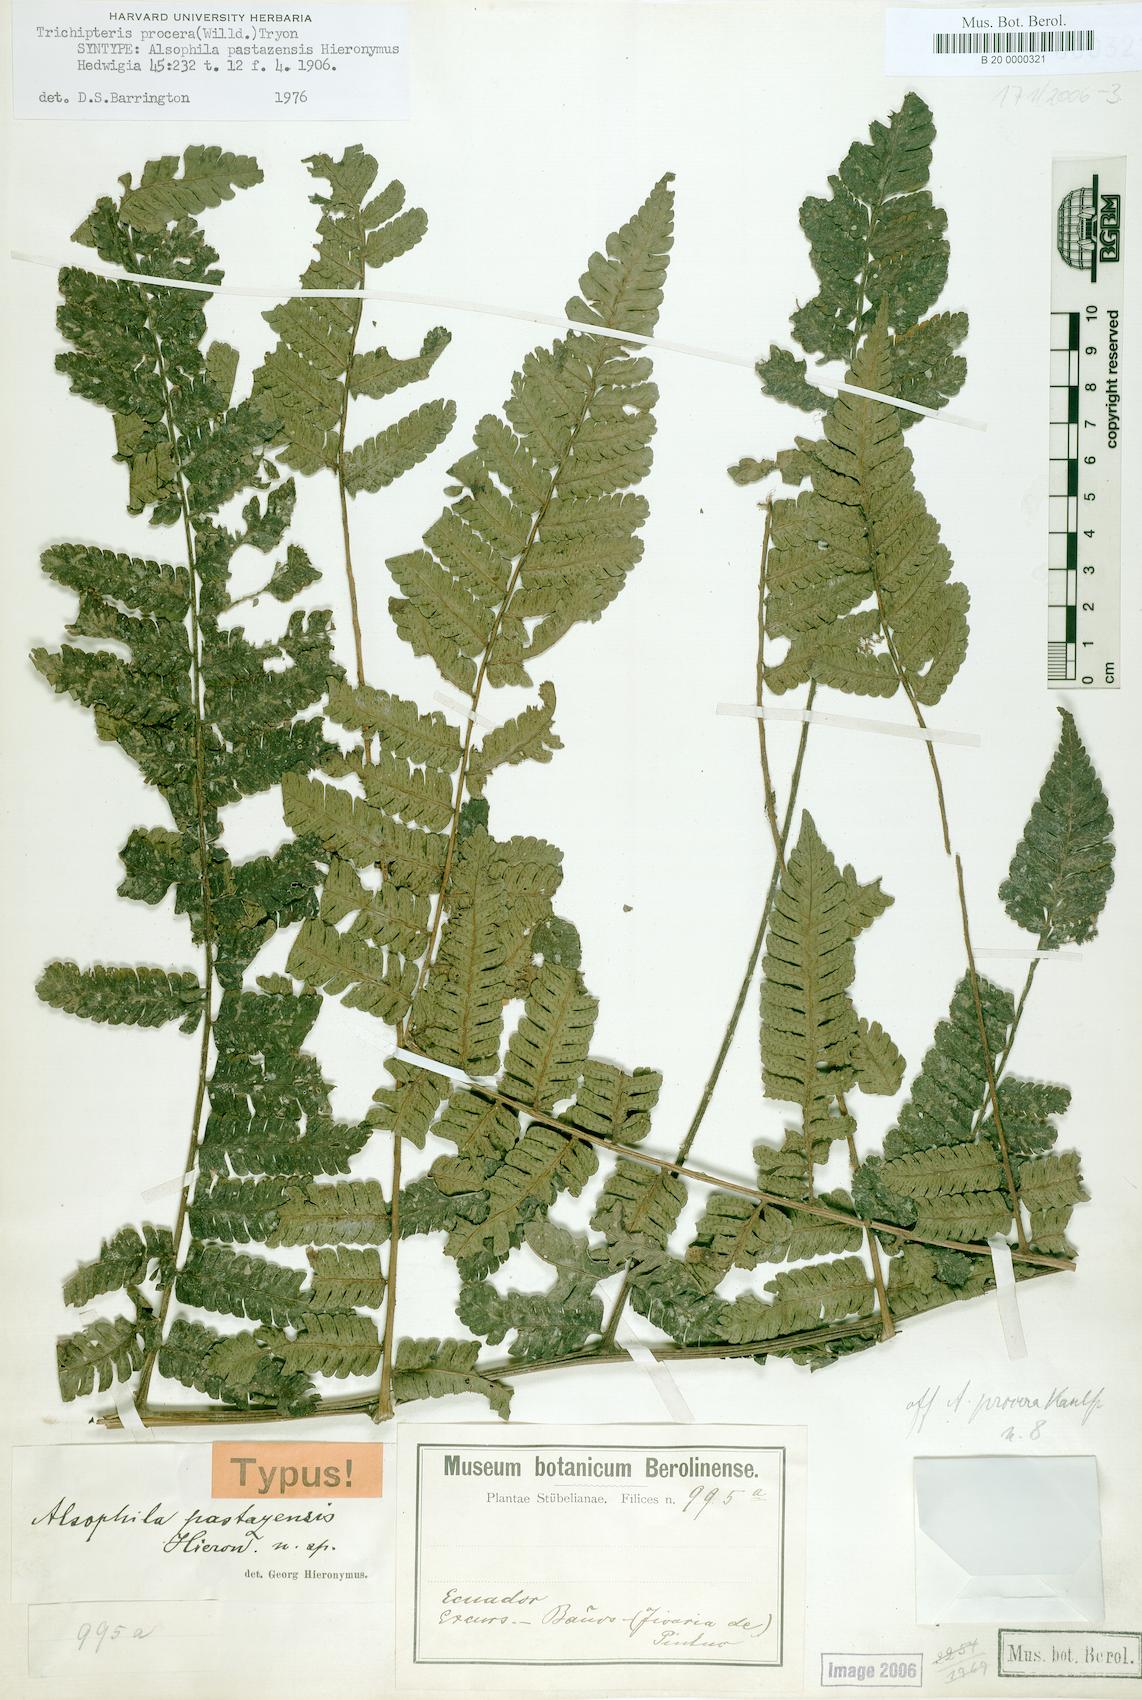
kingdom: Plantae
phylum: Tracheophyta
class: Polypodiopsida
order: Cyatheales
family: Cyatheaceae
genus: Cyathea
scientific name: Cyathea pungens
